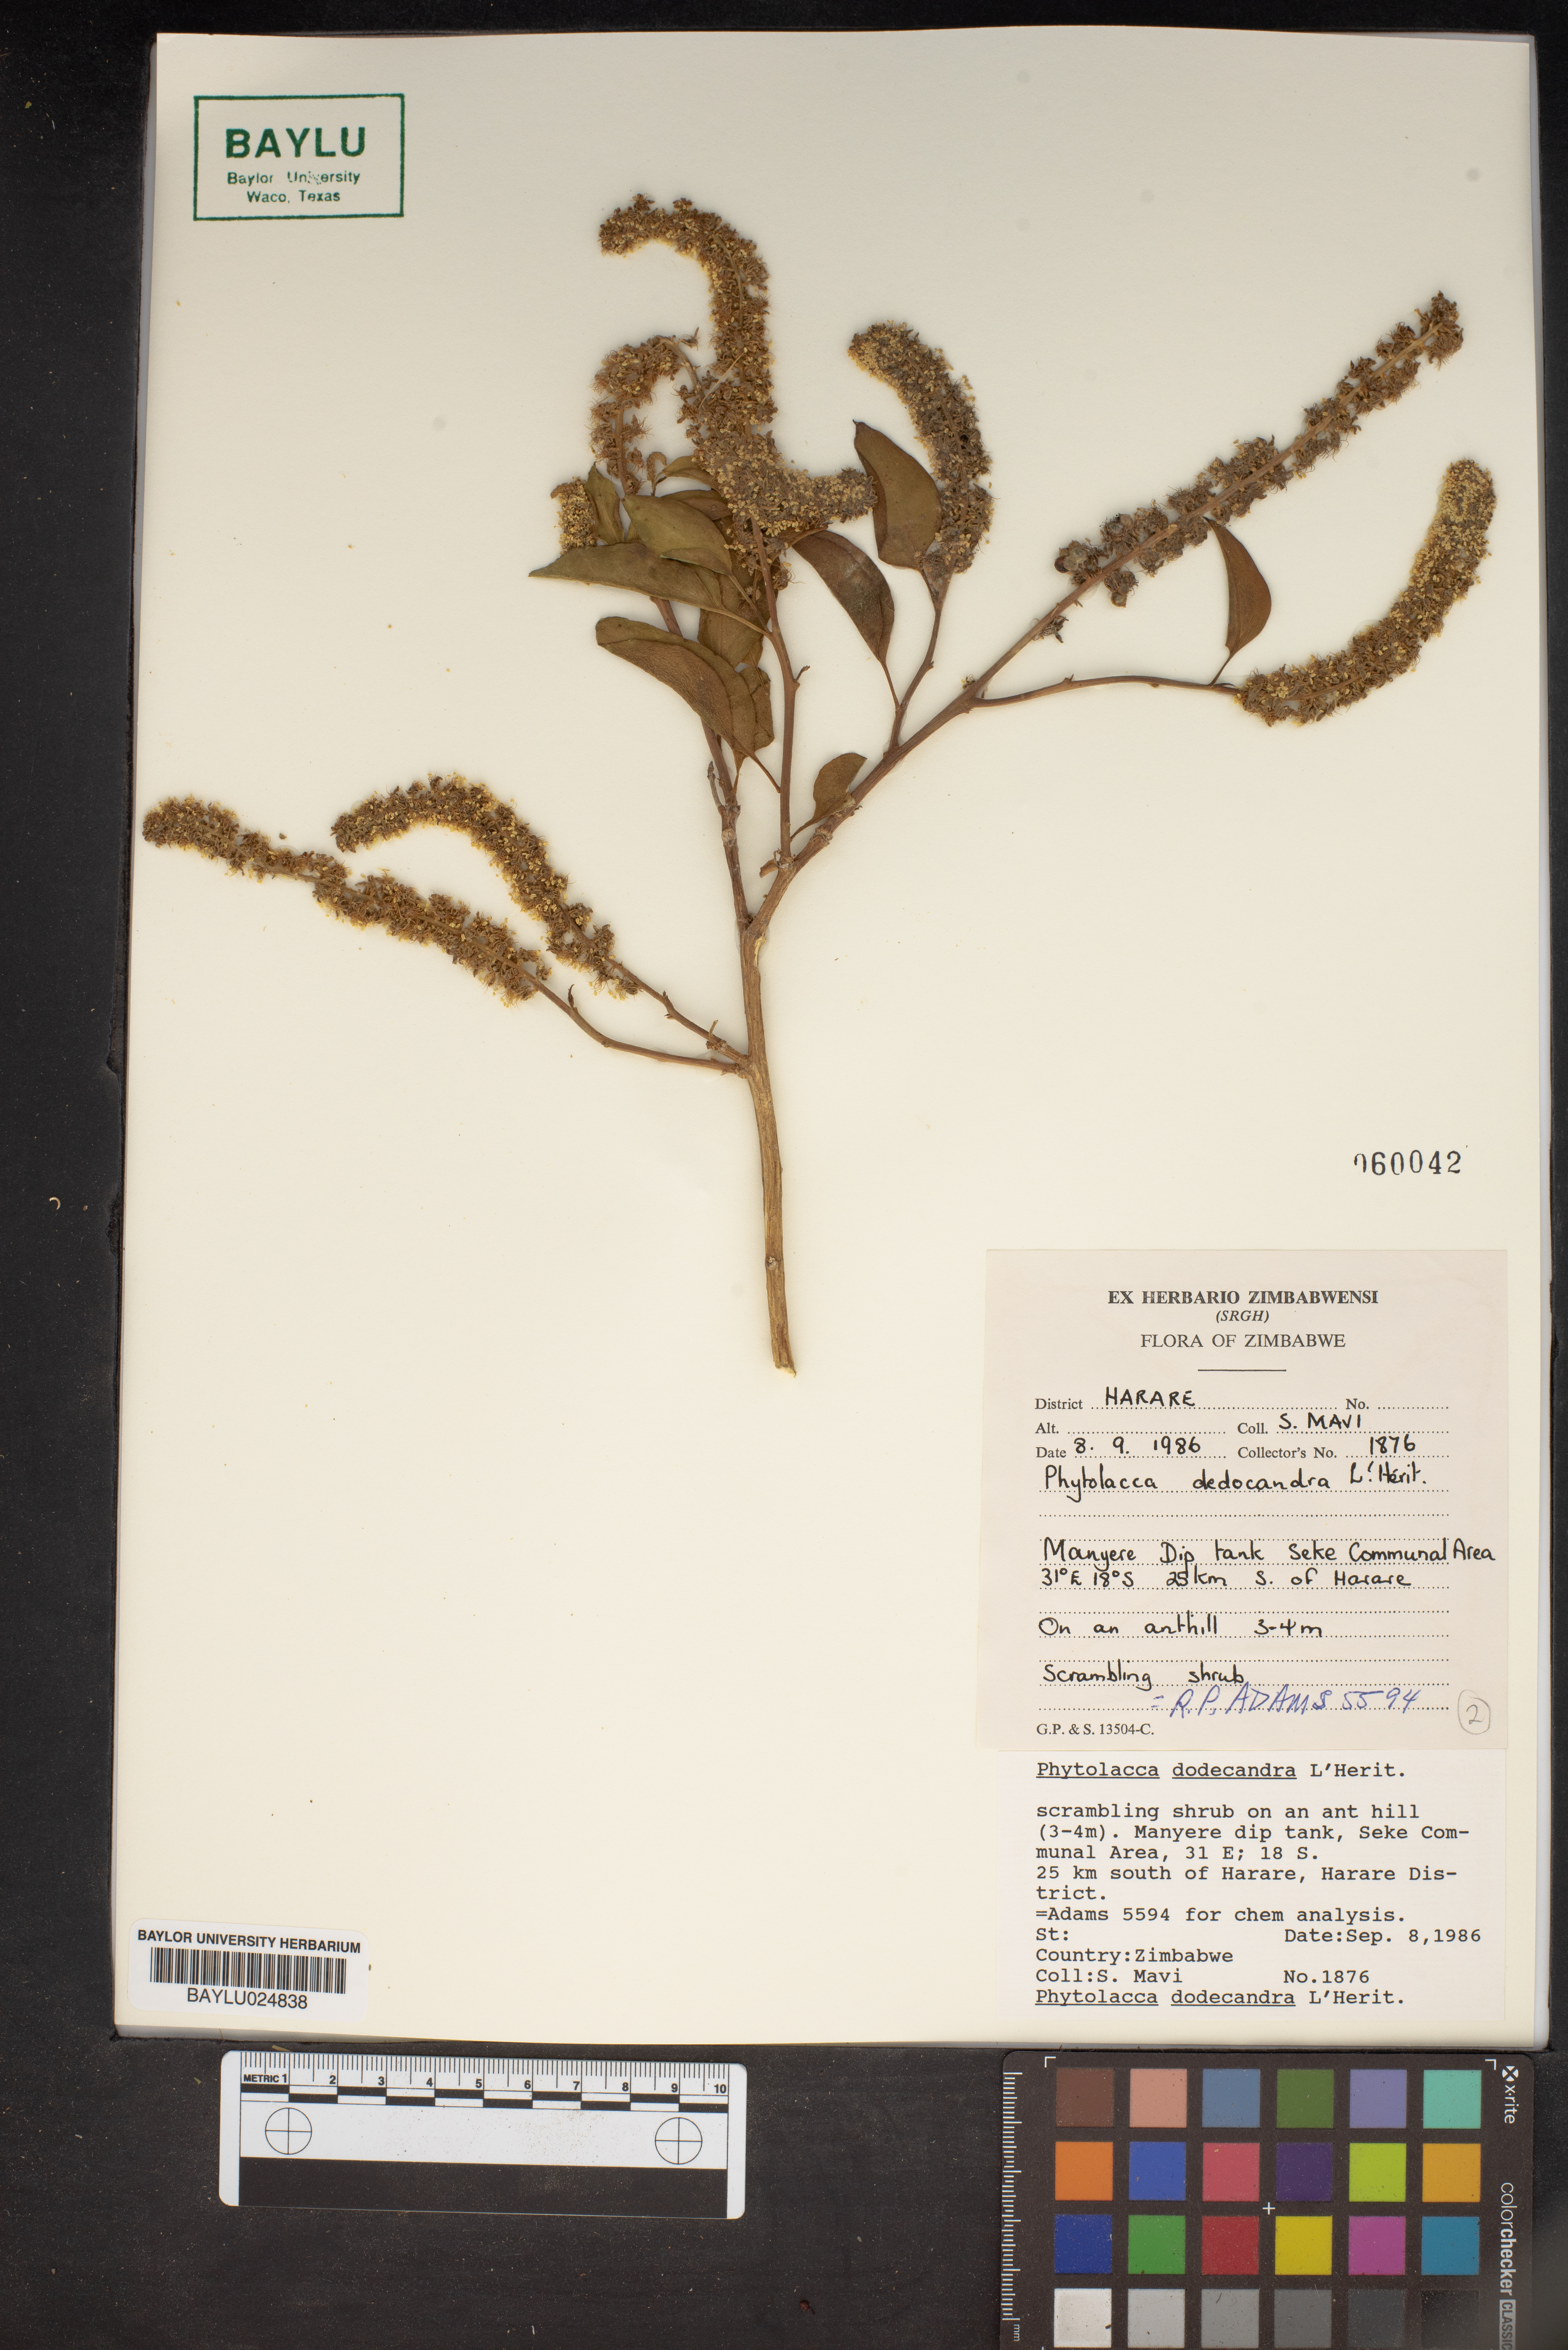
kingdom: Plantae
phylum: Tracheophyta
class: Magnoliopsida
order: Caryophyllales
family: Phytolaccaceae
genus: Phytolacca
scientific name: Phytolacca dodecandra
